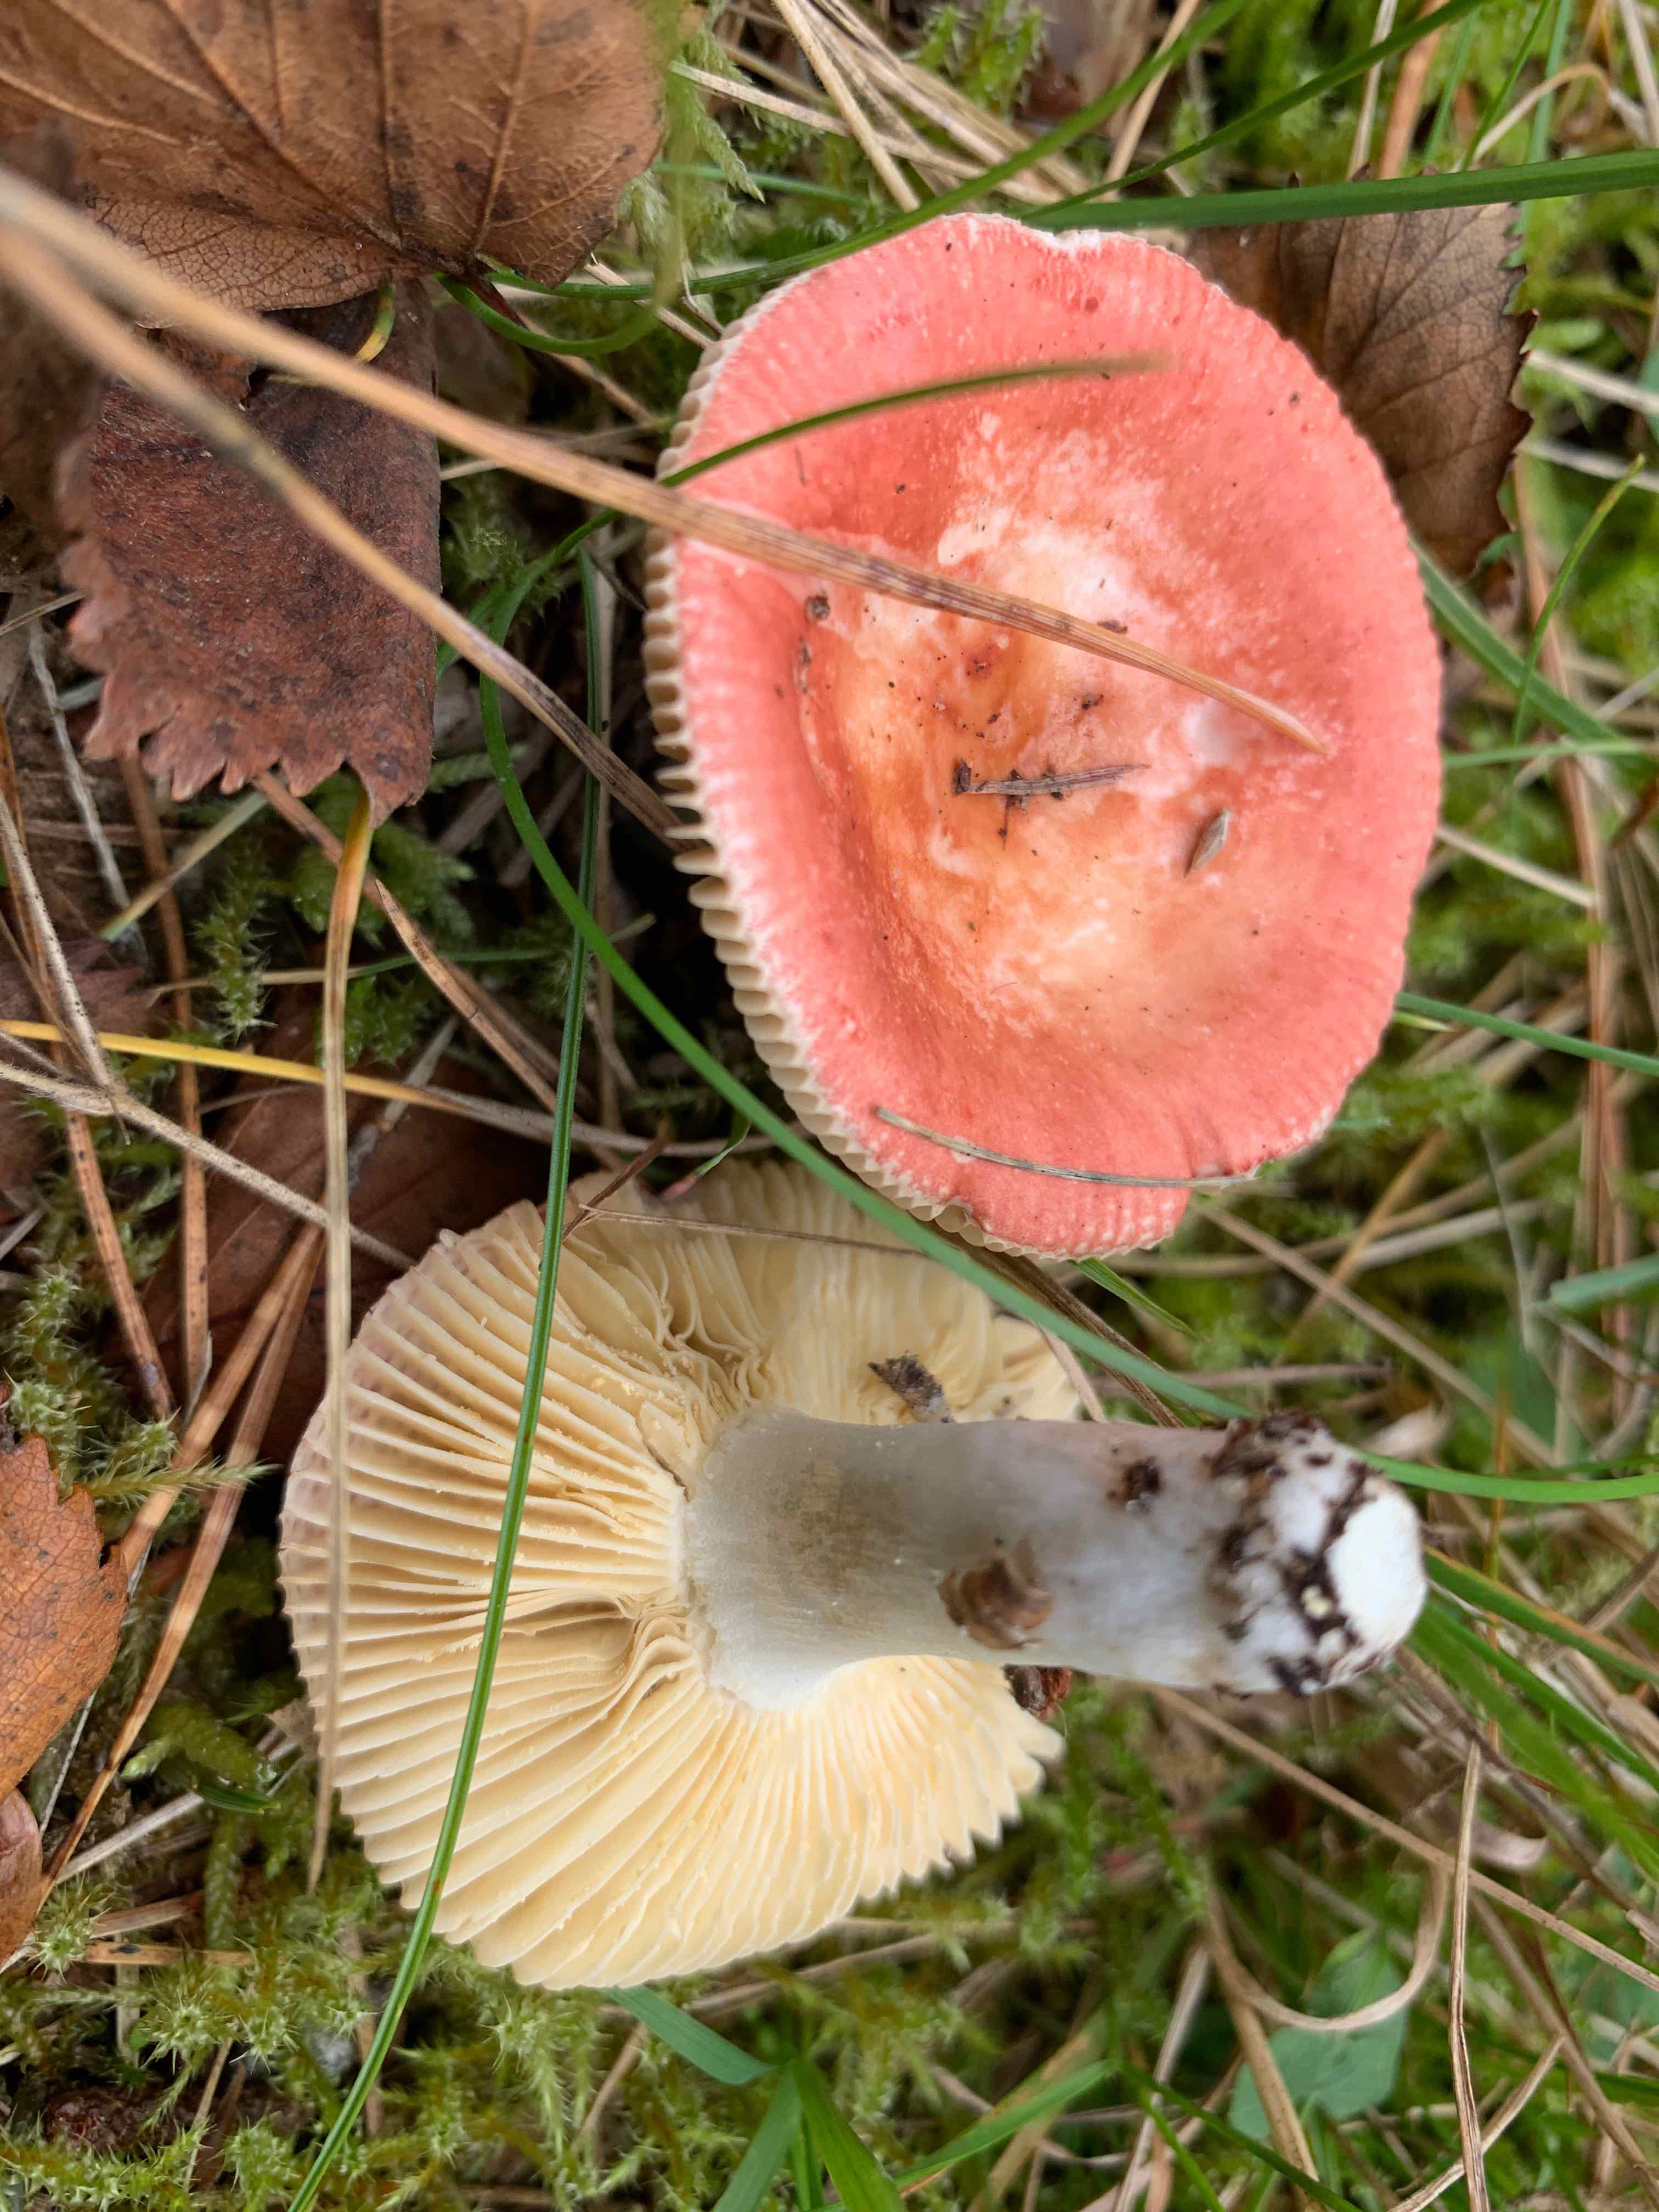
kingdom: Fungi
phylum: Basidiomycota
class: Agaricomycetes
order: Russulales
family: Russulaceae
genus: Russula
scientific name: Russula velenovskyi
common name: orangerød skørhat
